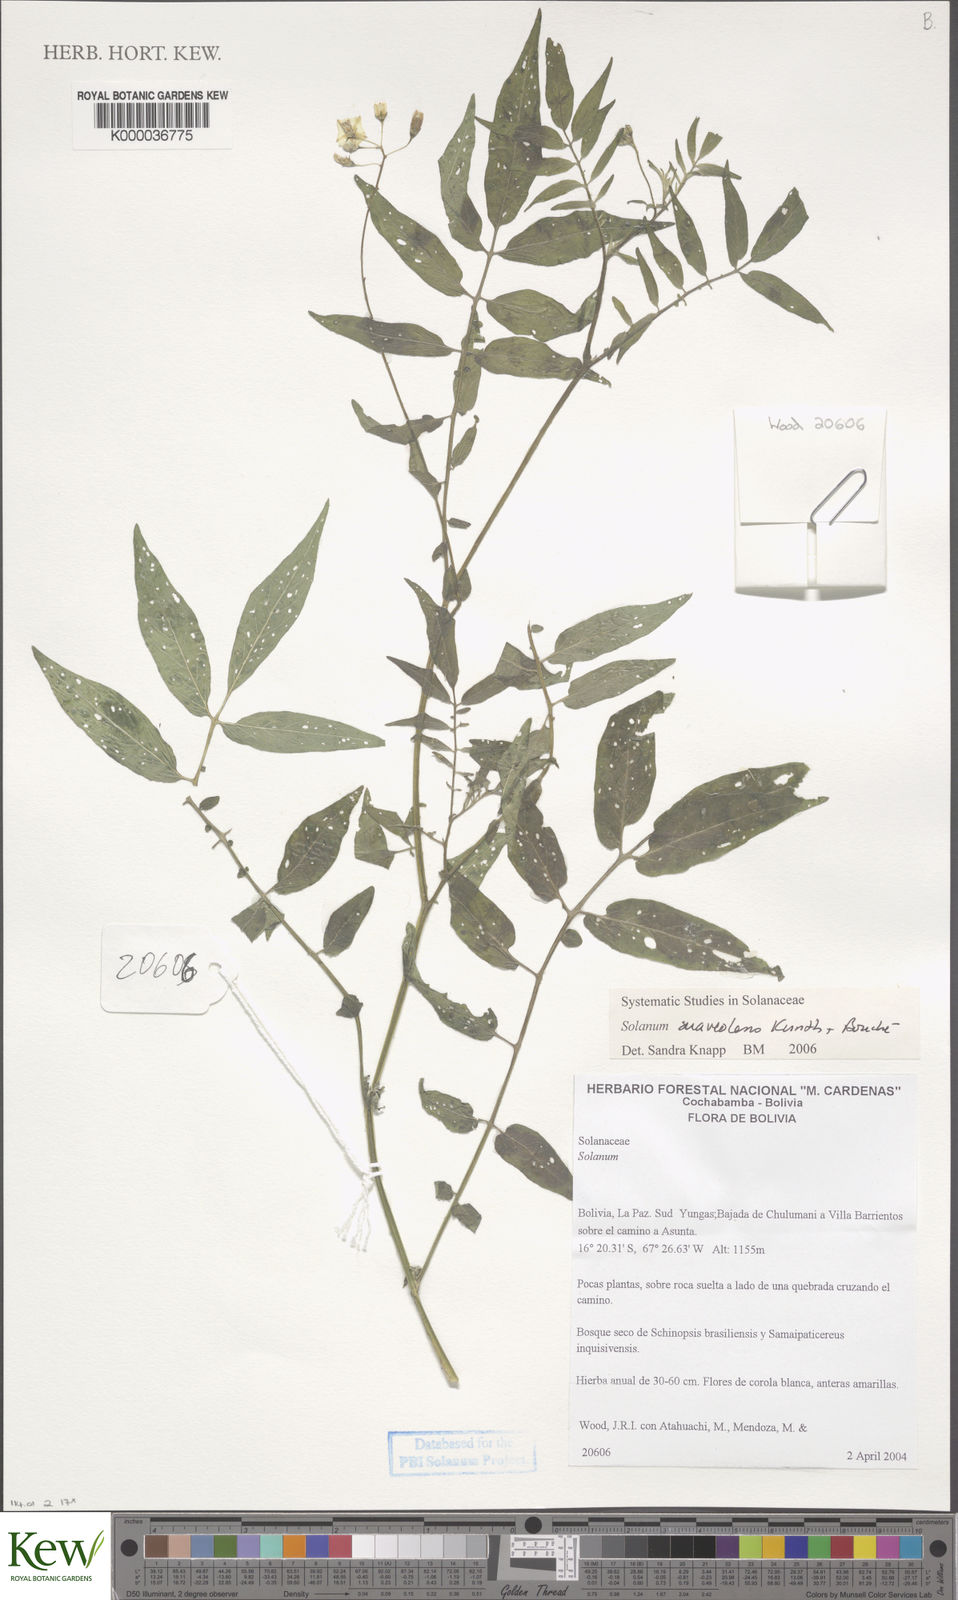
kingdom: Plantae
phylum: Tracheophyta
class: Magnoliopsida
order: Solanales
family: Solanaceae
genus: Solanum
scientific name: Solanum suaveolens
